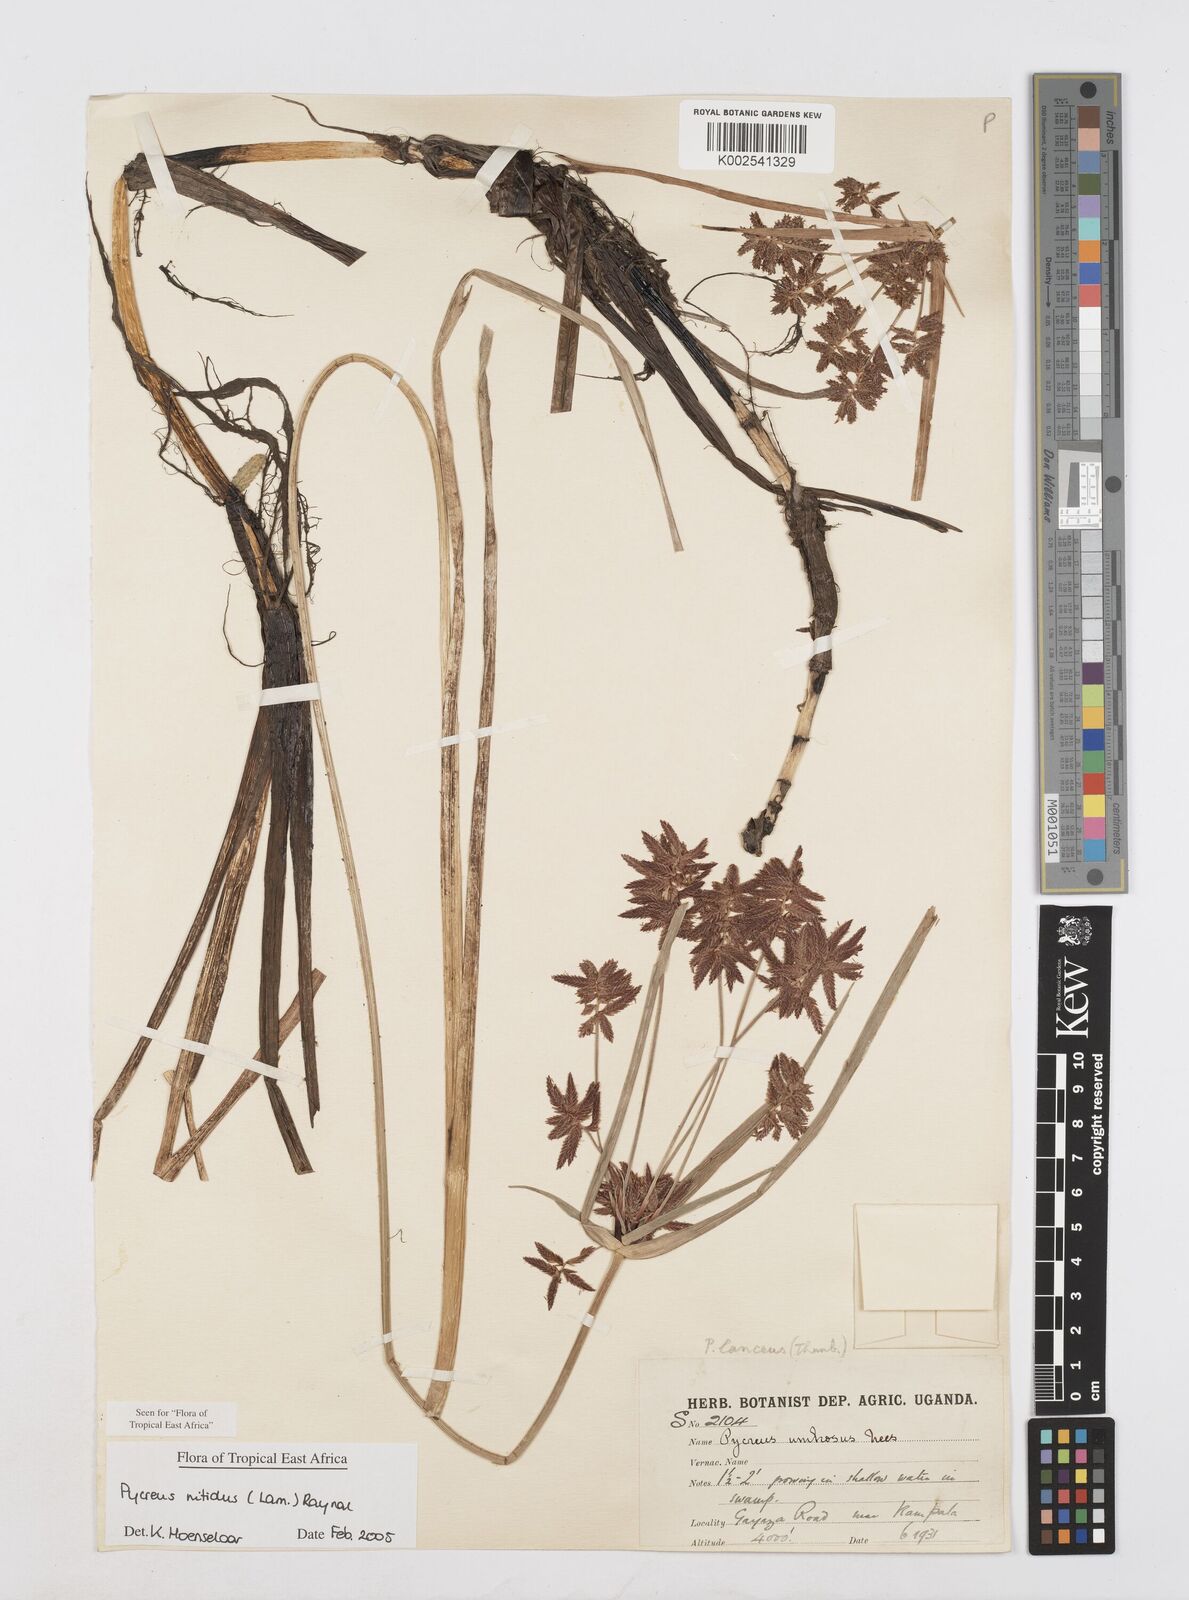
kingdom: Plantae
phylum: Tracheophyta
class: Liliopsida
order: Poales
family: Cyperaceae
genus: Cyperus
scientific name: Cyperus nitidus
